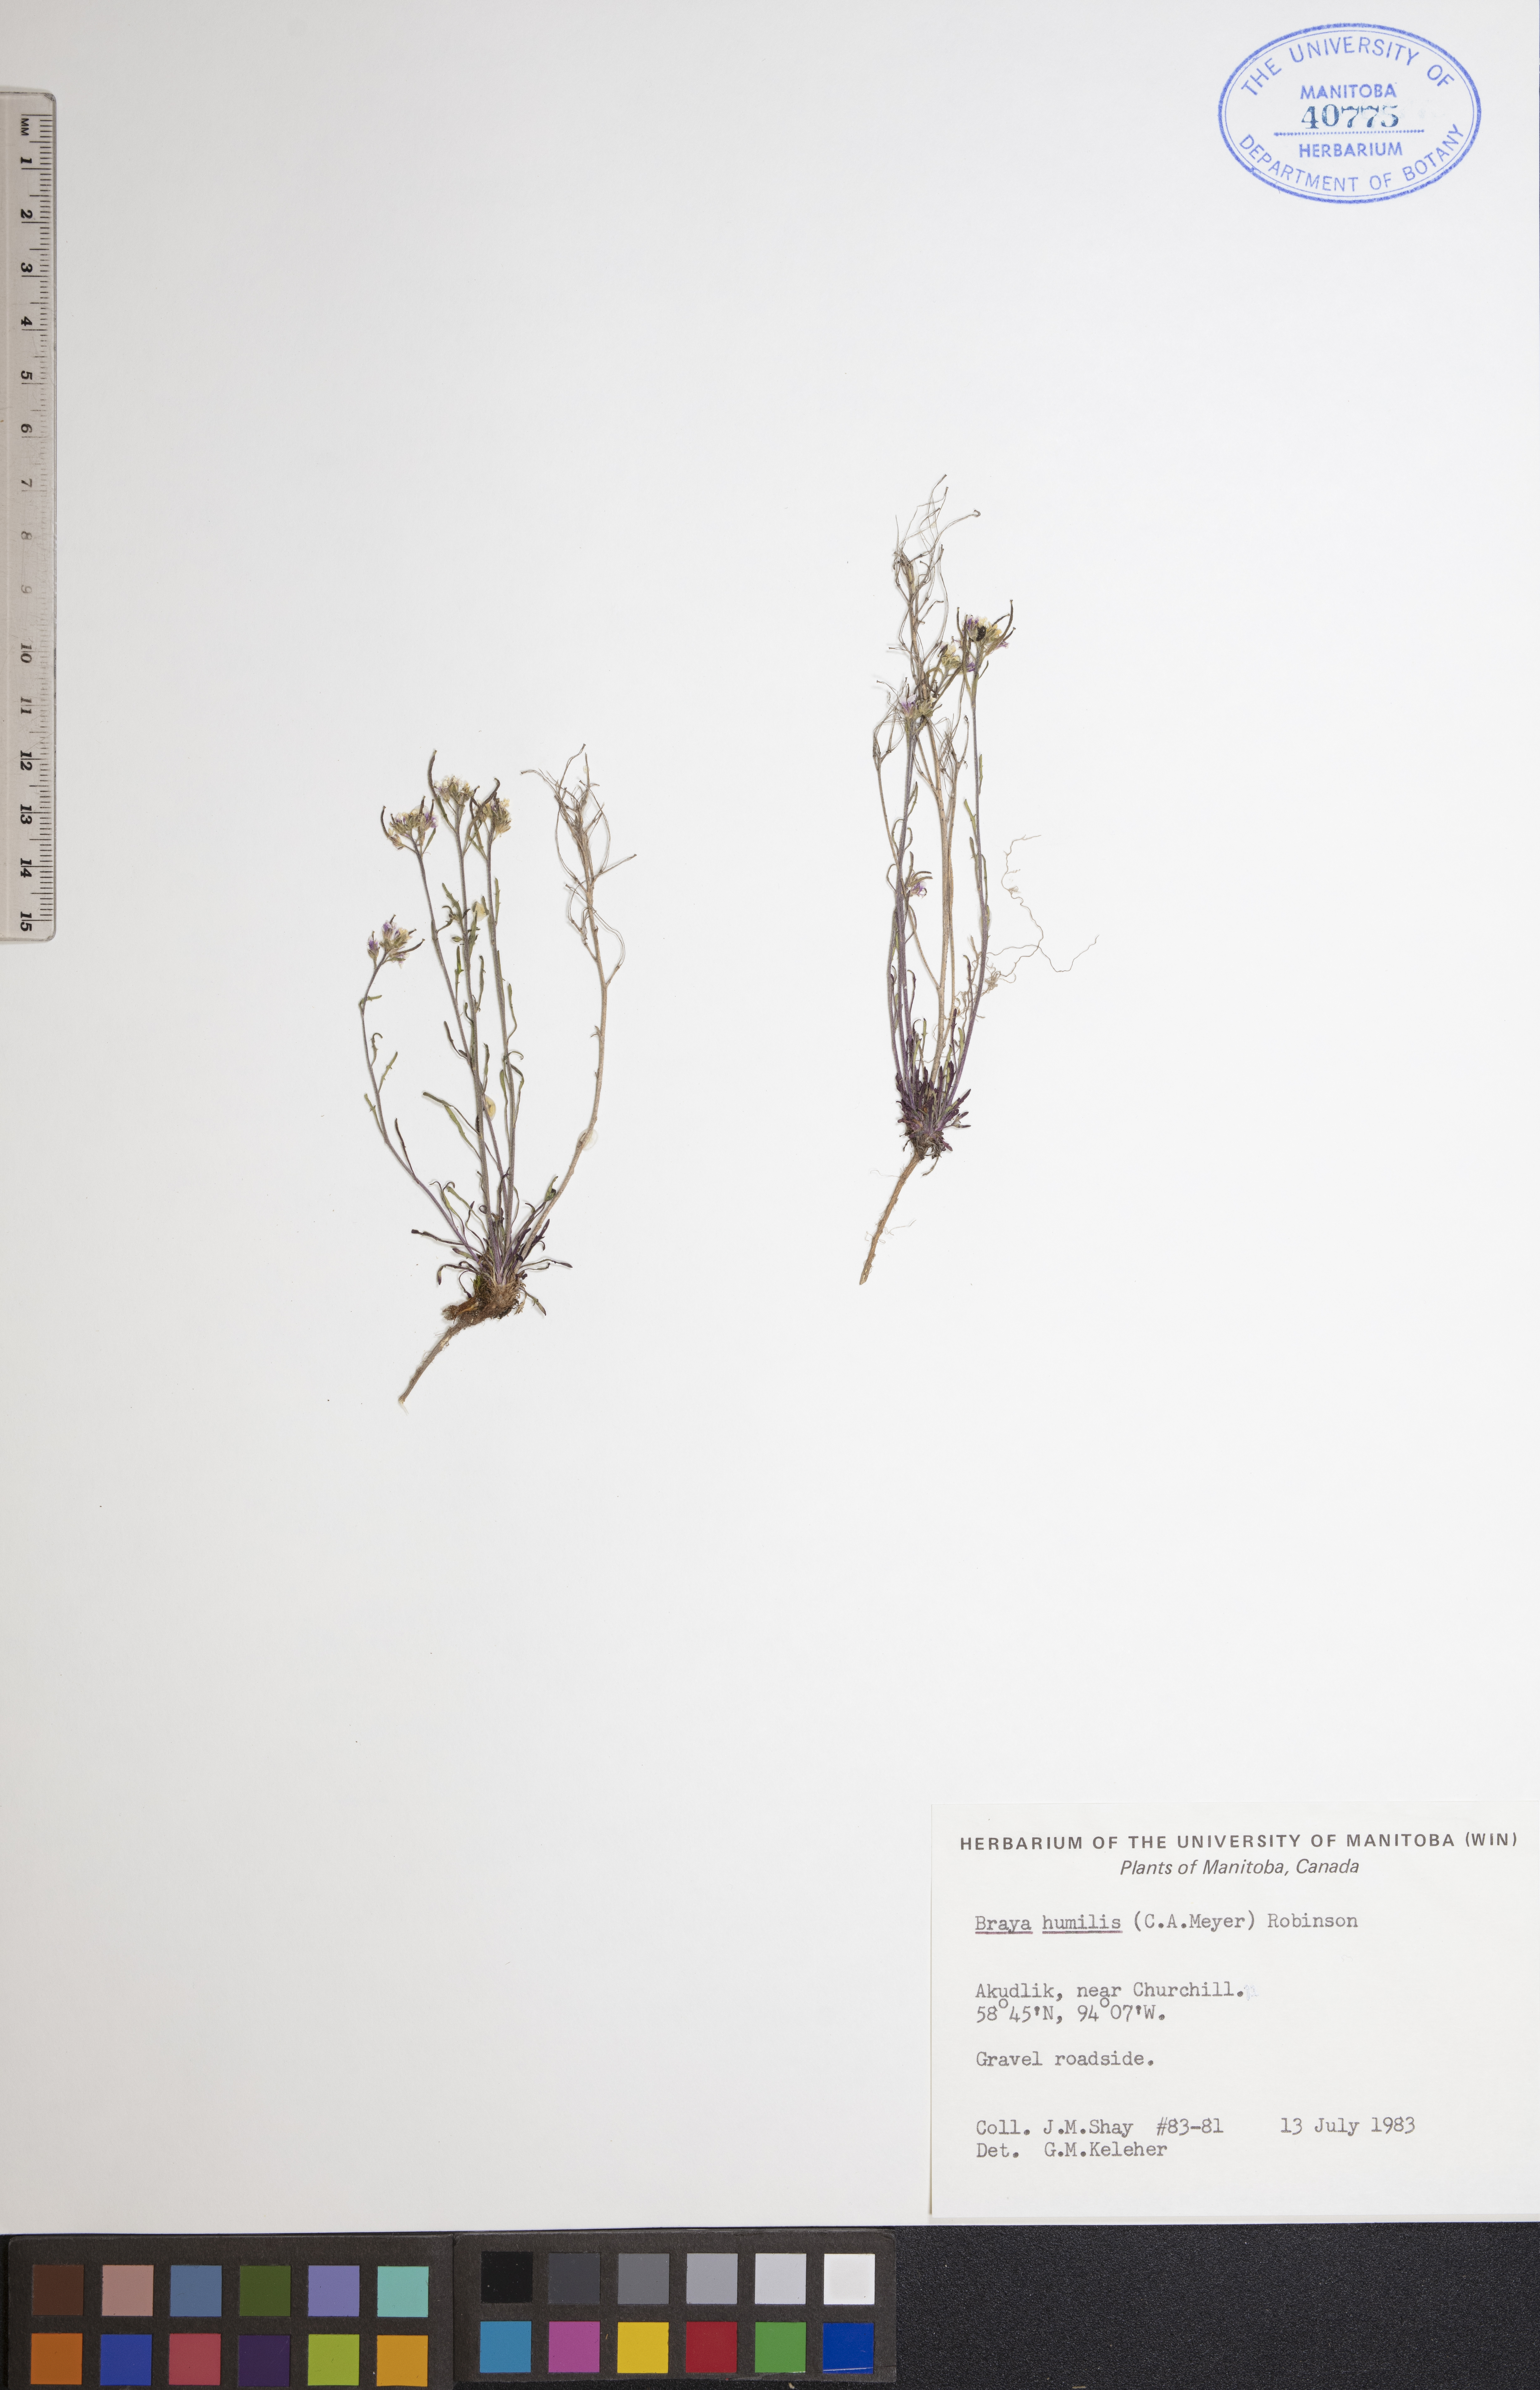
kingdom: Plantae
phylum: Tracheophyta
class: Magnoliopsida
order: Brassicales
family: Brassicaceae
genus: Braya
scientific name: Braya humilis
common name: Alpine northern rockcress
